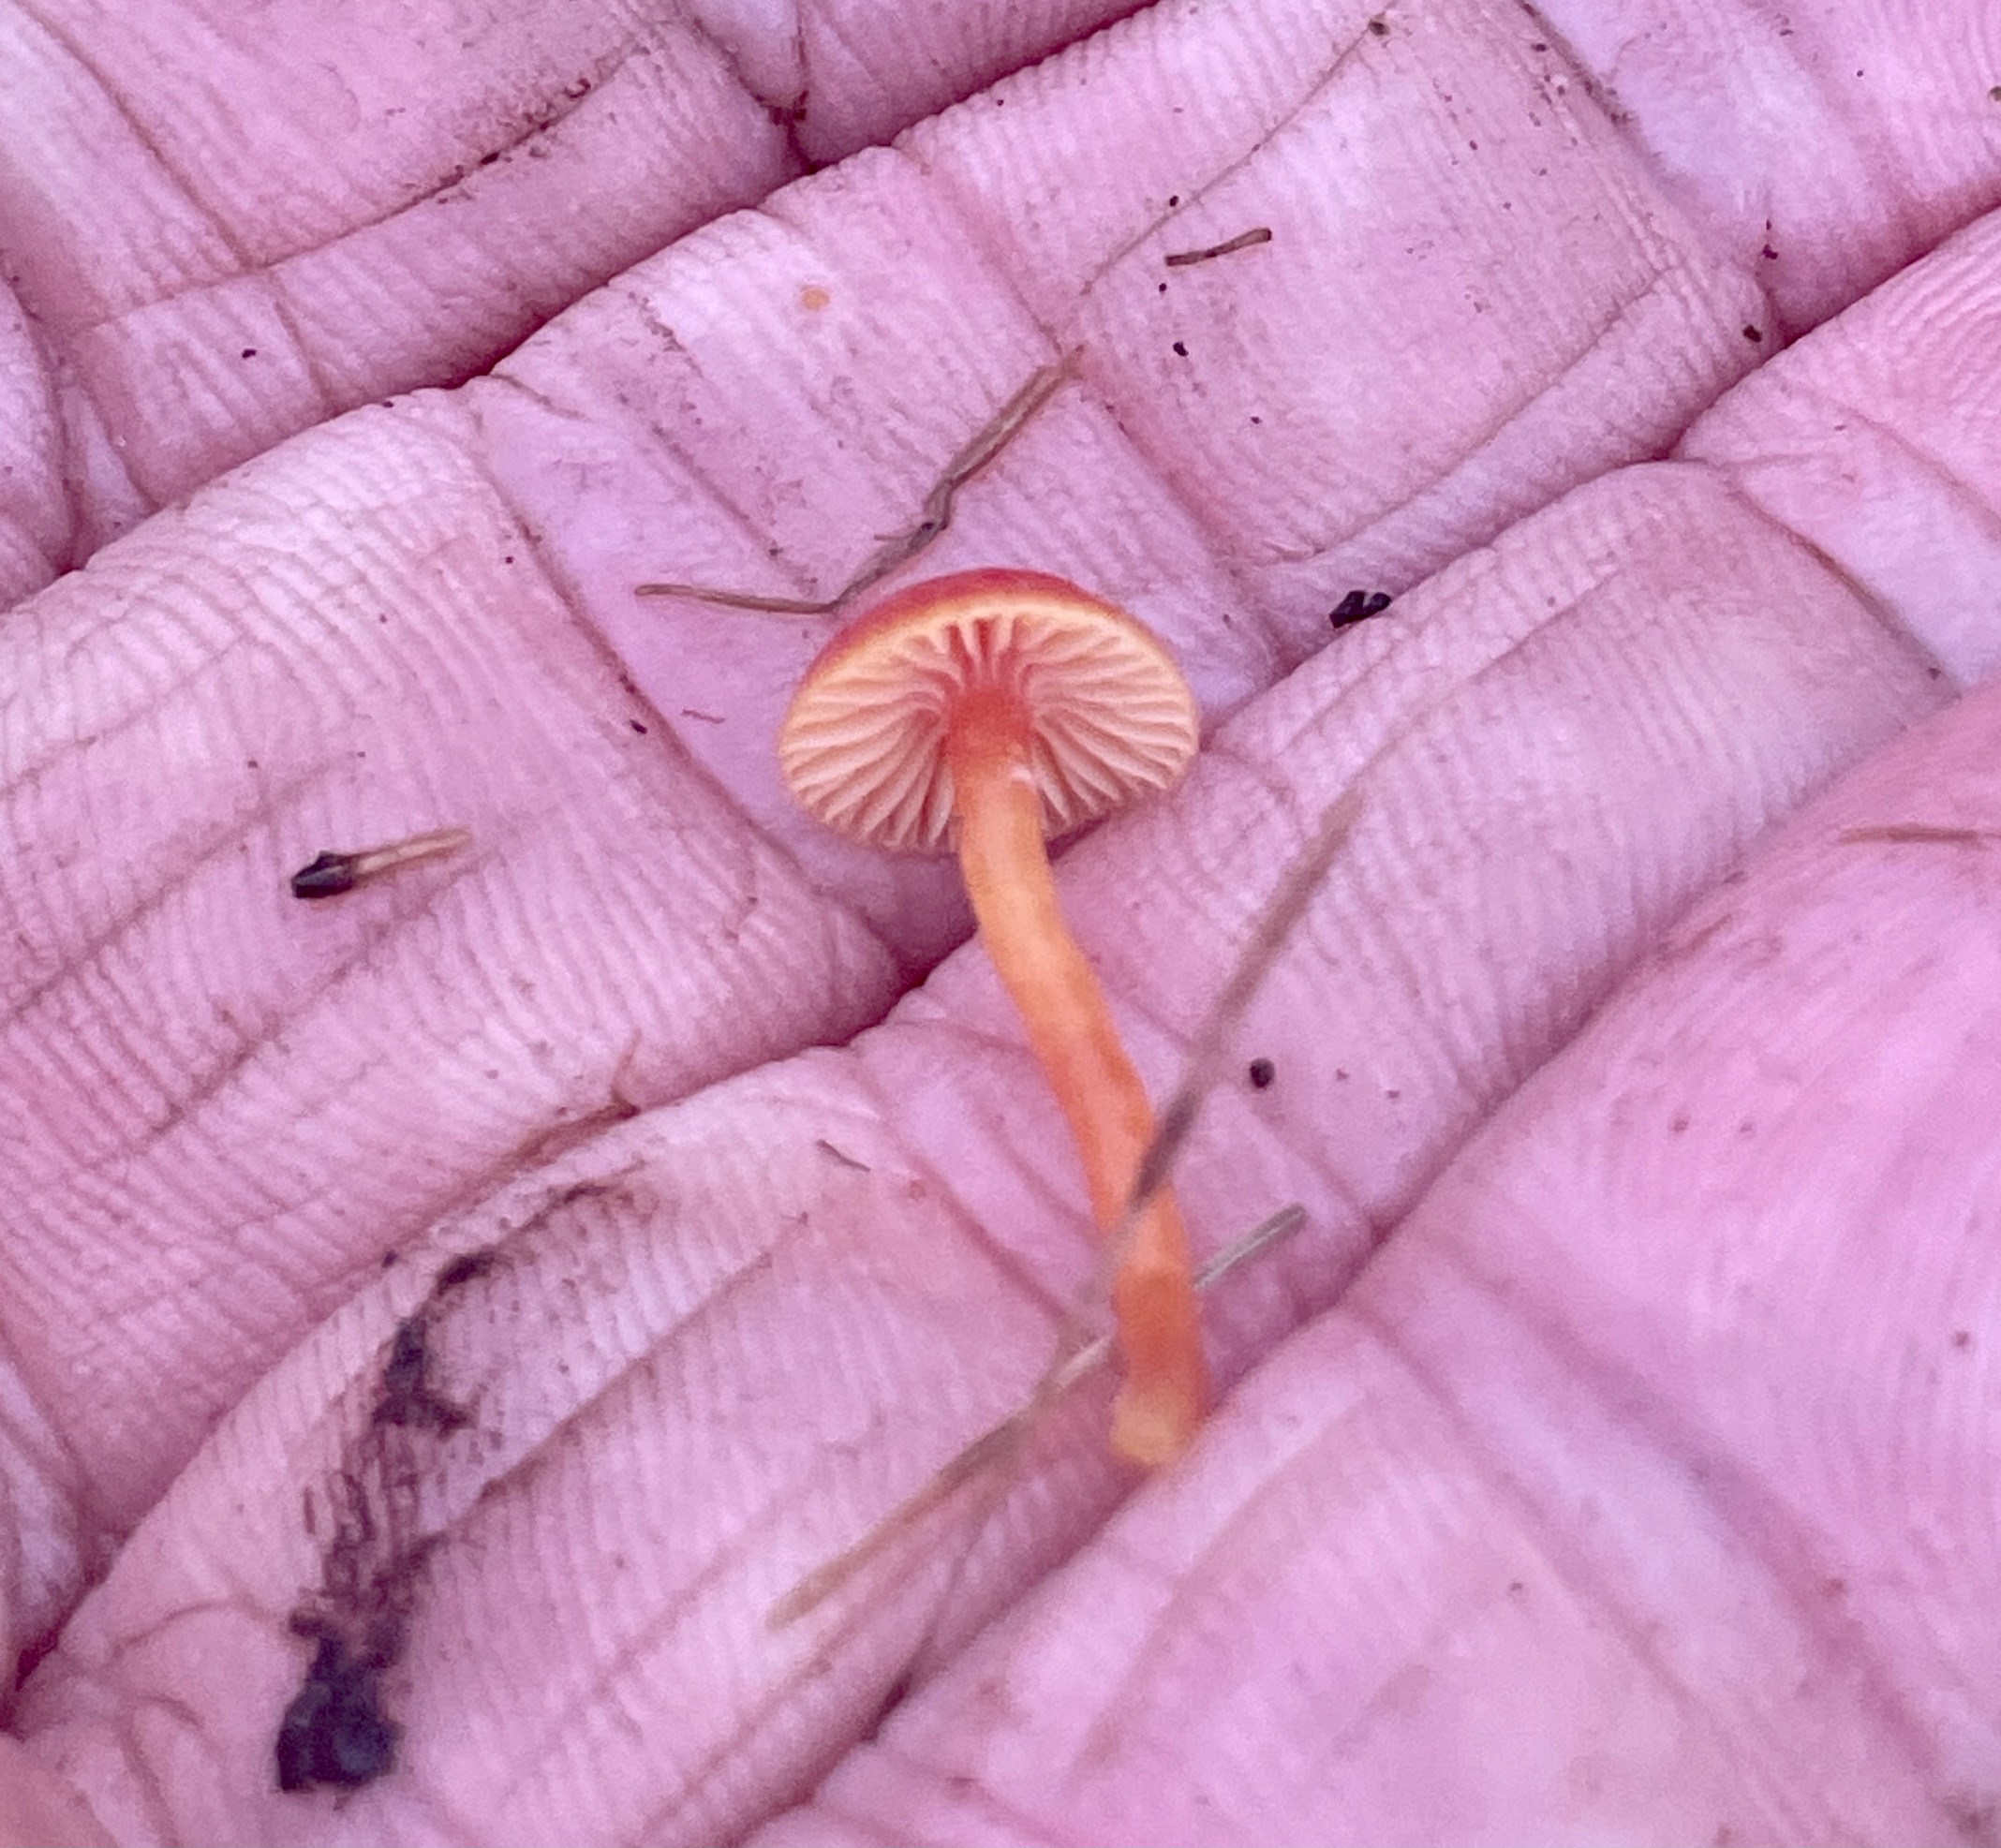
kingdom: Fungi
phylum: Basidiomycota
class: Agaricomycetes
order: Agaricales
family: Hygrophoraceae
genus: Hygrocybe
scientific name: Hygrocybe insipida
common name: liden vokshat
